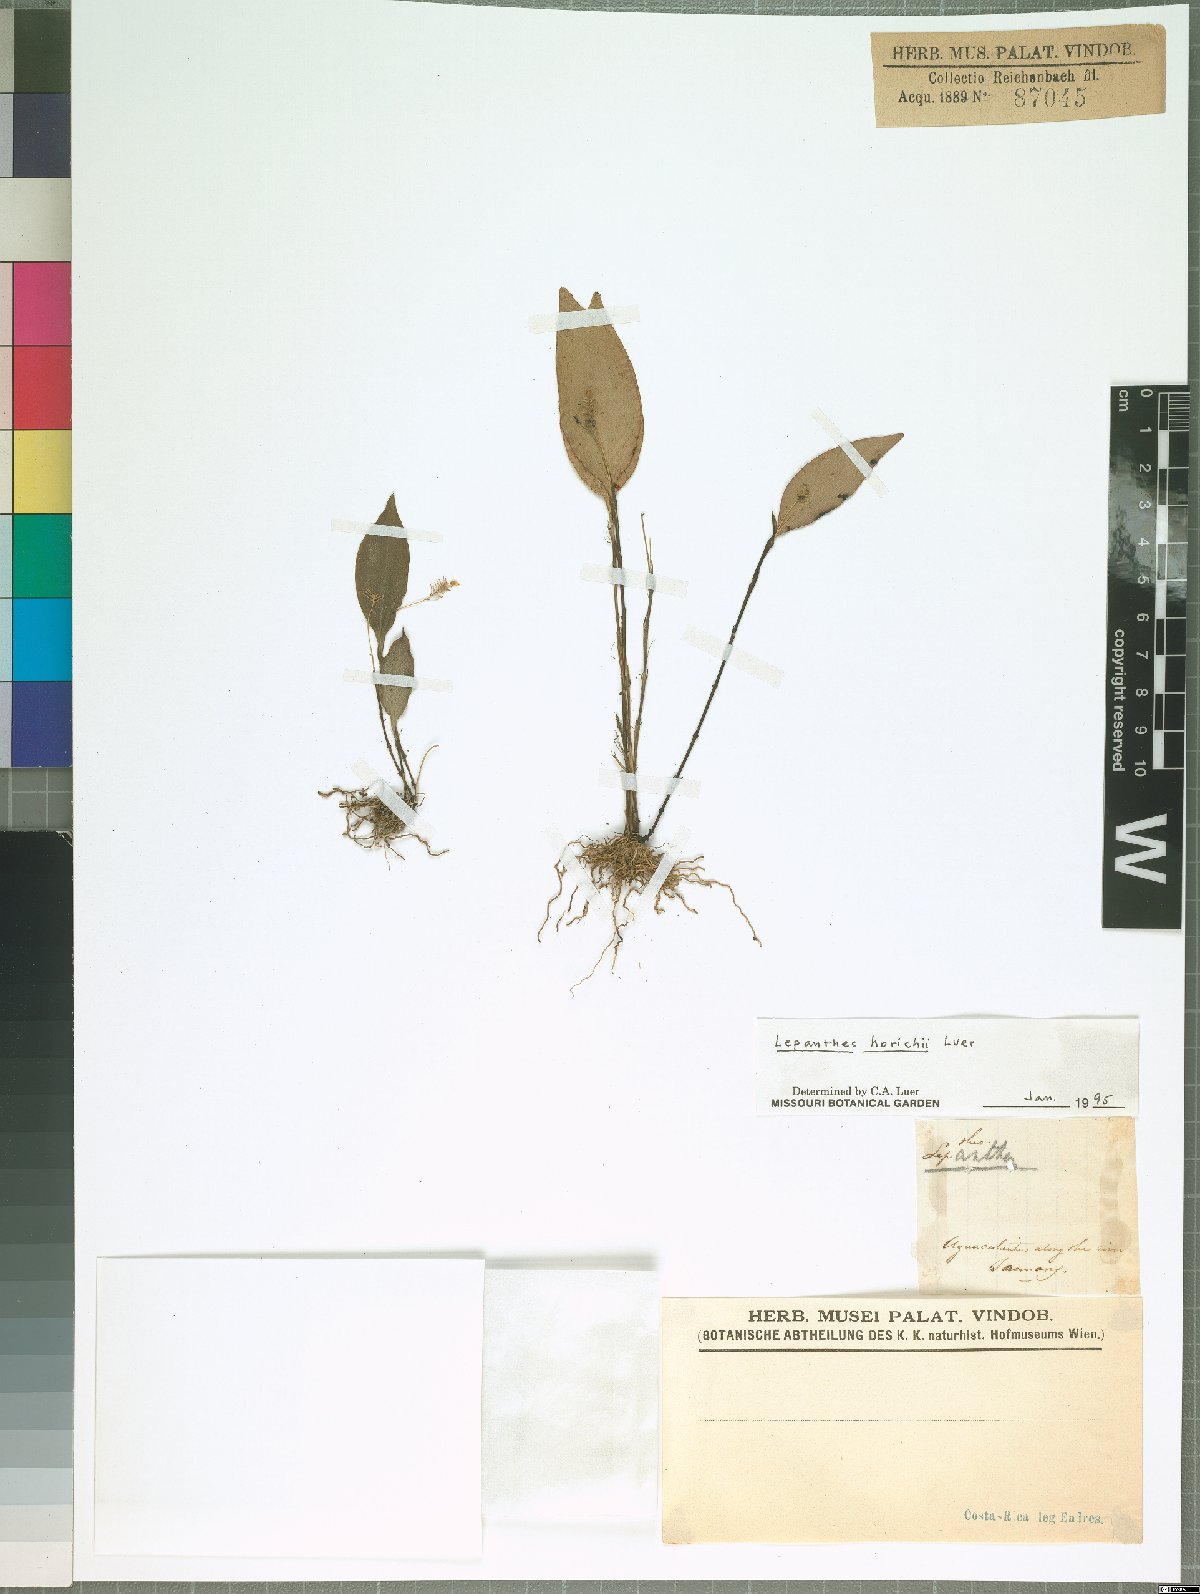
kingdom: Plantae
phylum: Tracheophyta
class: Liliopsida
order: Asparagales
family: Orchidaceae
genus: Lepanthes
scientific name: Lepanthes horichii
